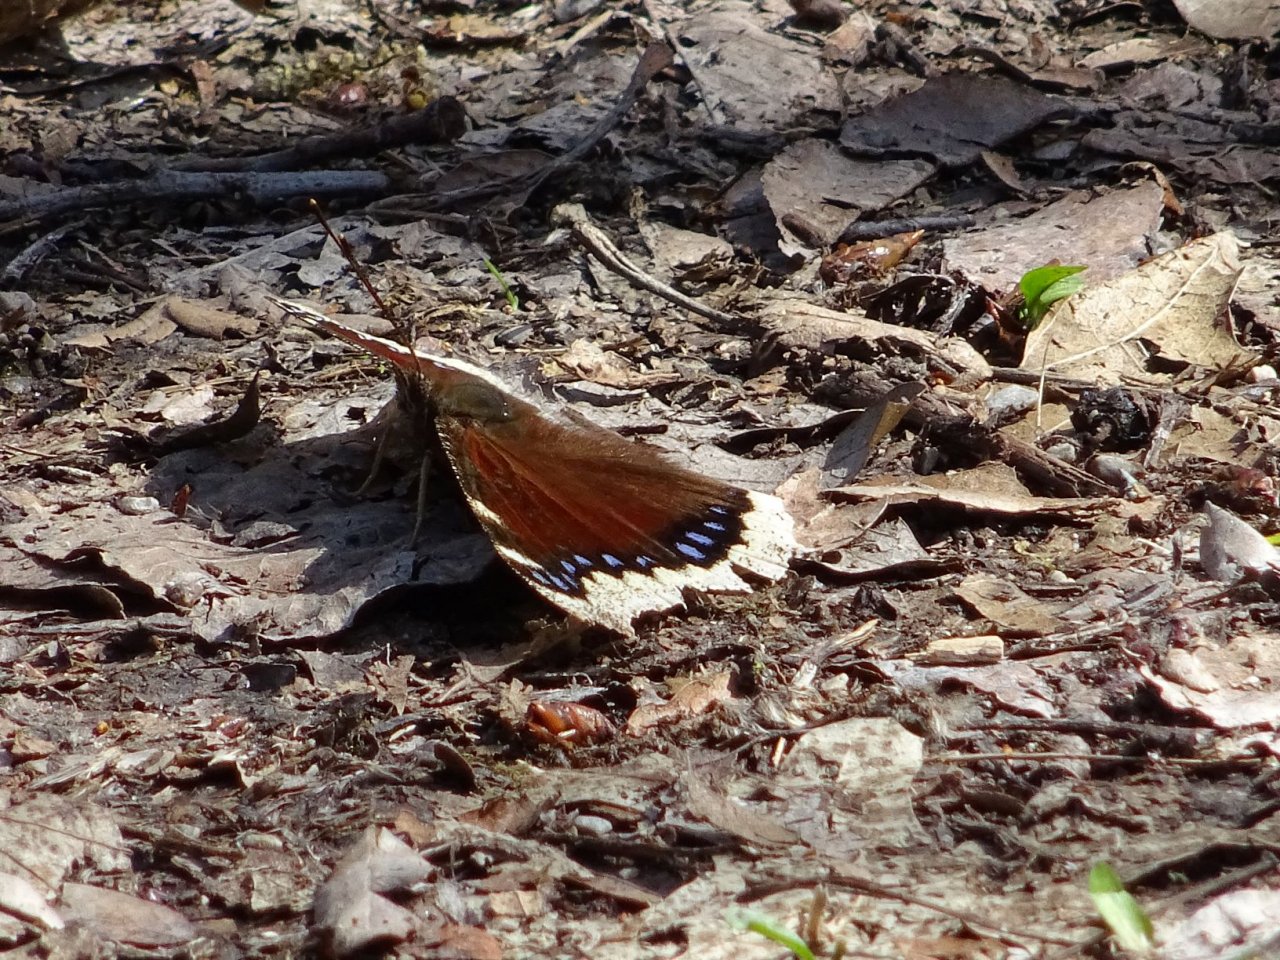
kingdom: Animalia
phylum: Arthropoda
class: Insecta
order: Lepidoptera
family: Nymphalidae
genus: Nymphalis
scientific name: Nymphalis antiopa
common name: Mourning Cloak
